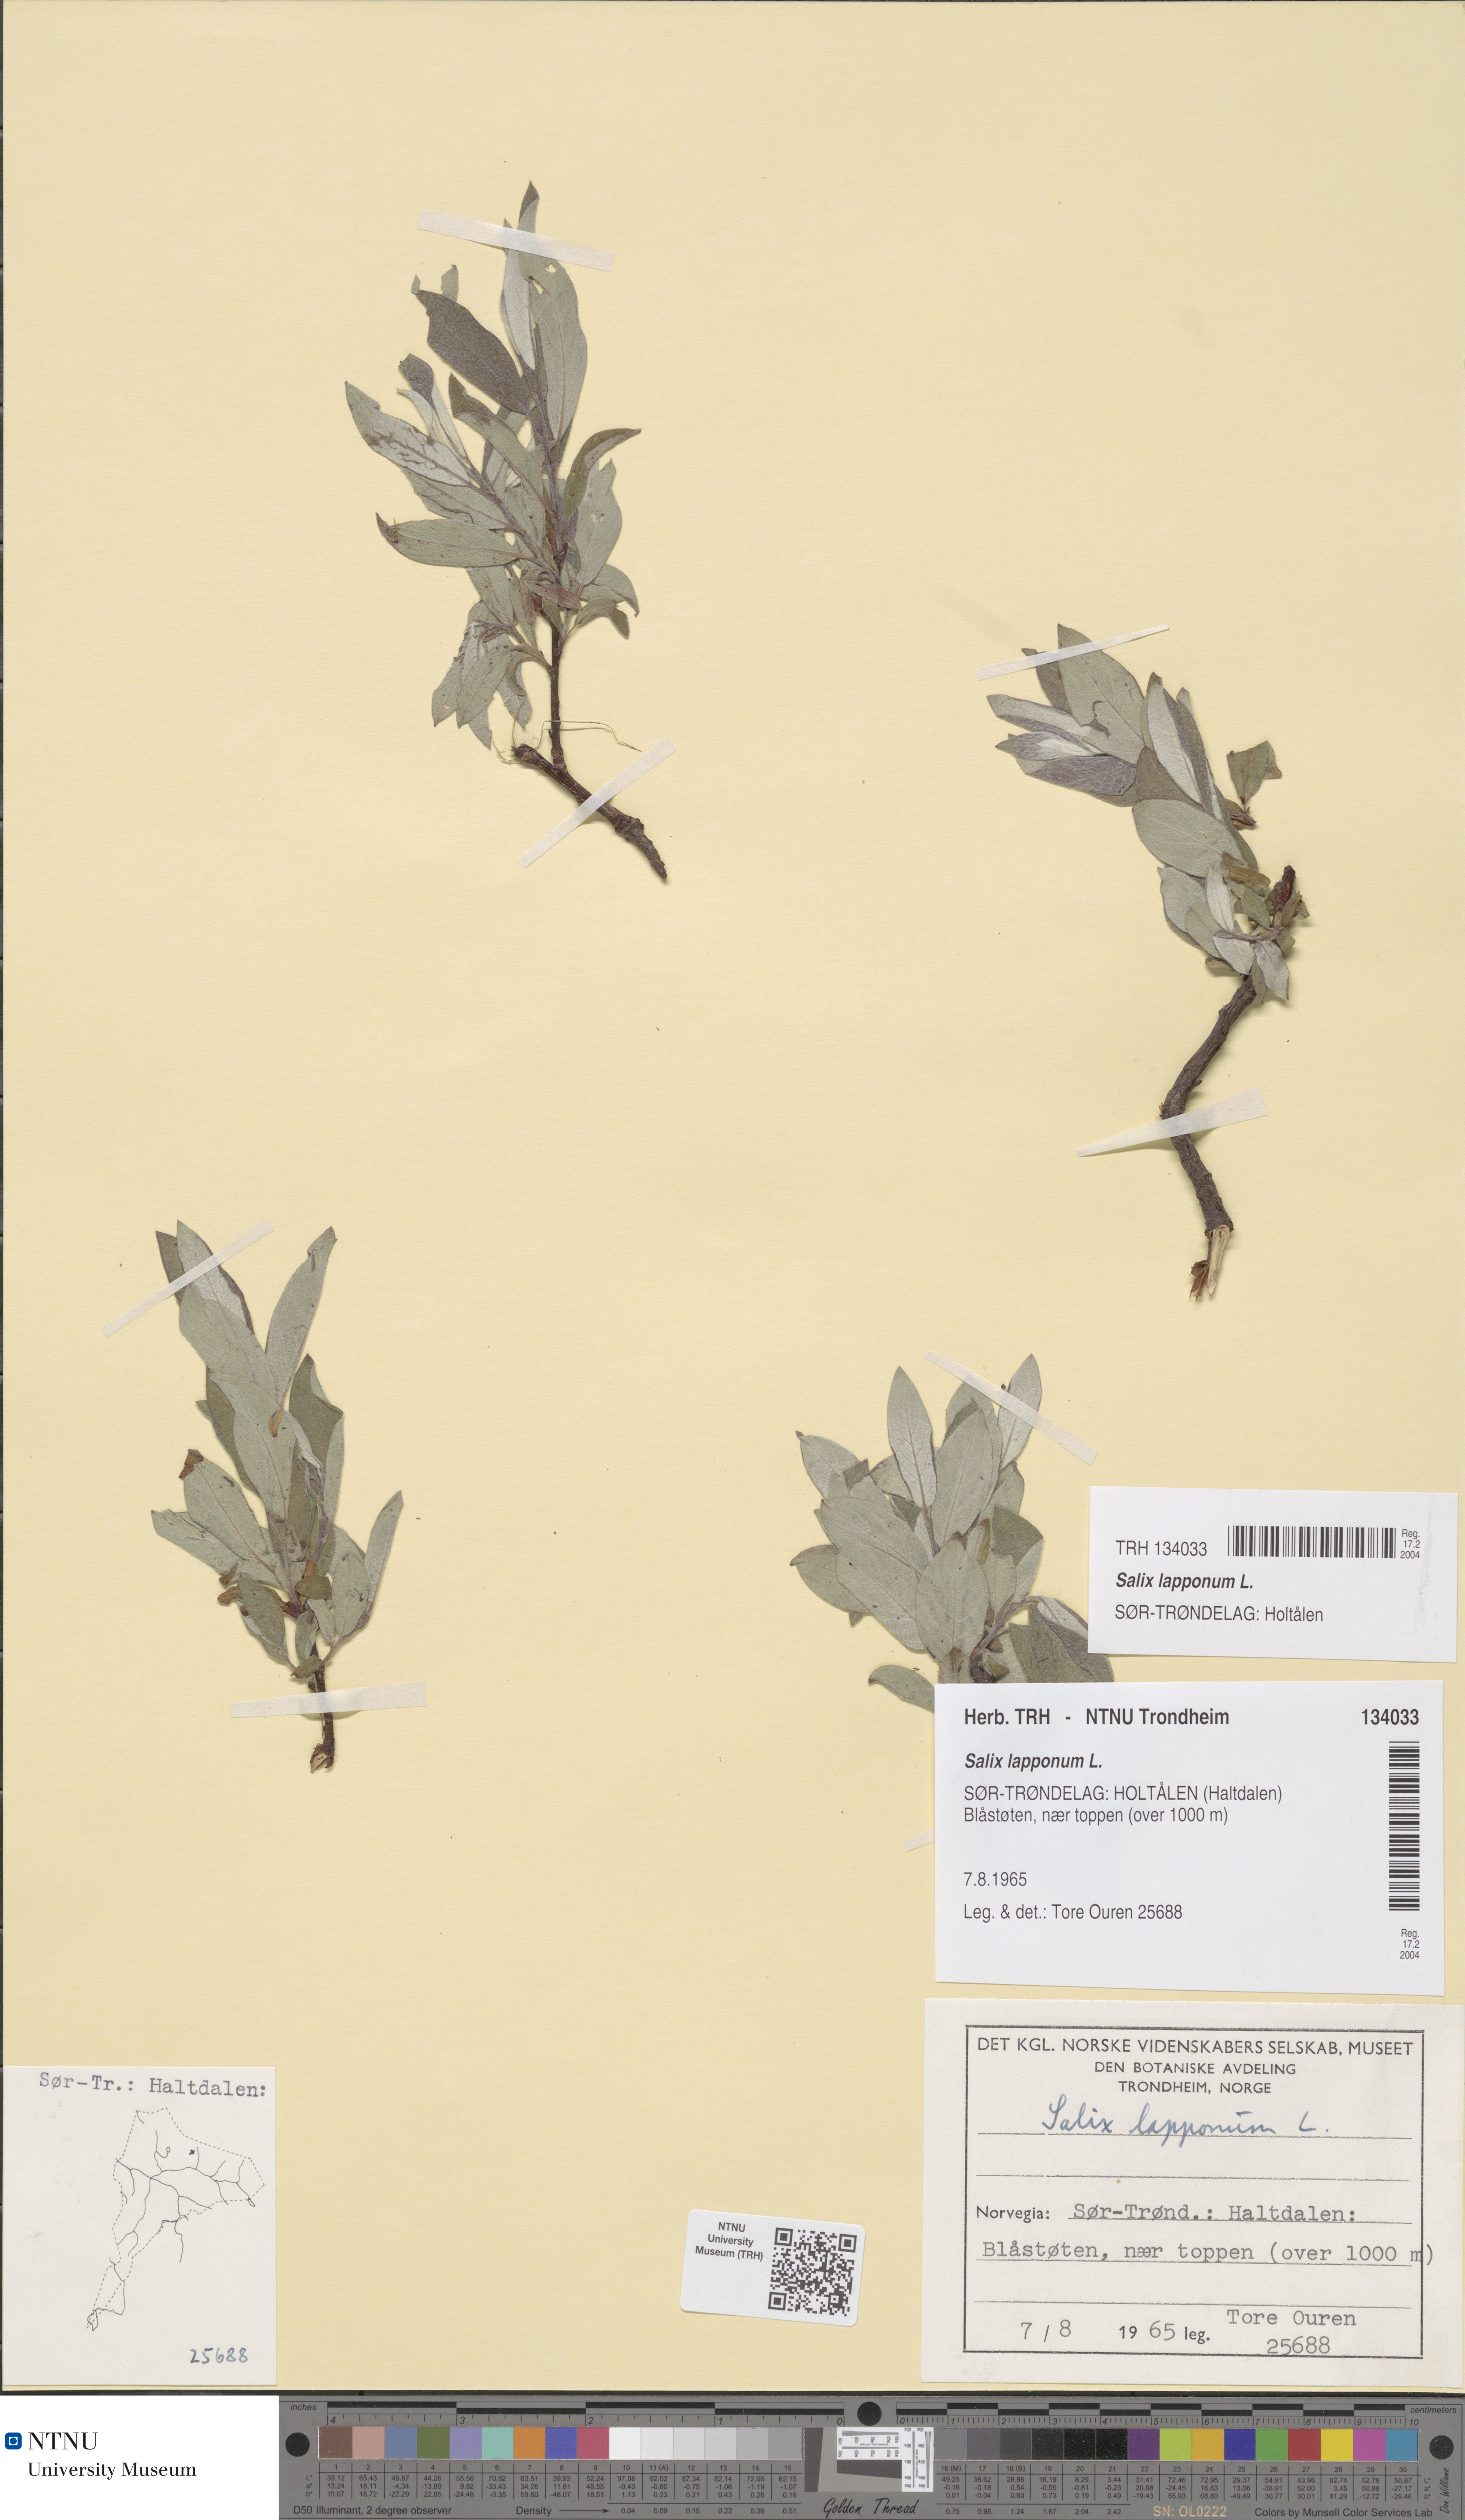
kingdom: Plantae
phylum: Tracheophyta
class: Magnoliopsida
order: Malpighiales
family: Salicaceae
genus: Salix
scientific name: Salix lapponum
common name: Downy willow
